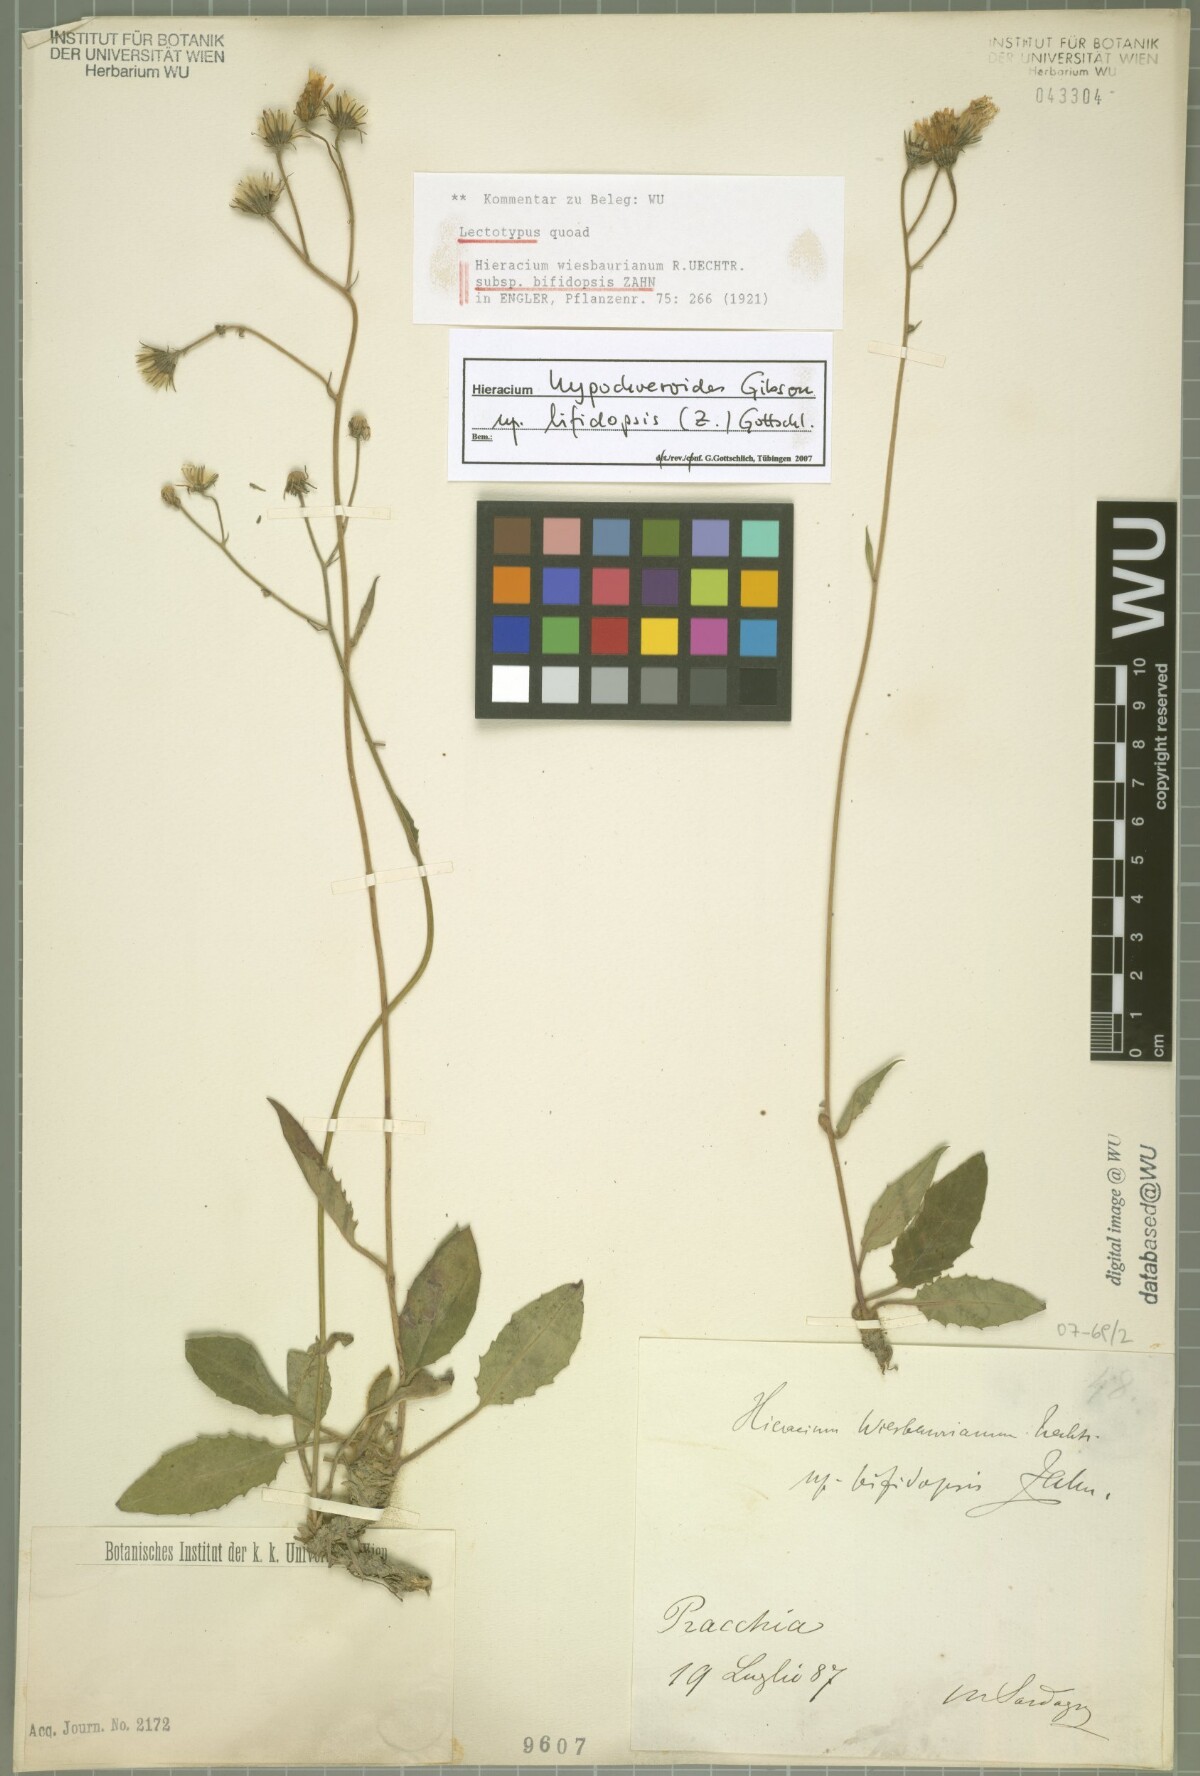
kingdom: Plantae
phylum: Tracheophyta
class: Magnoliopsida
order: Asterales
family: Asteraceae
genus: Hieracium
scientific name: Hieracium hypochoeroides
